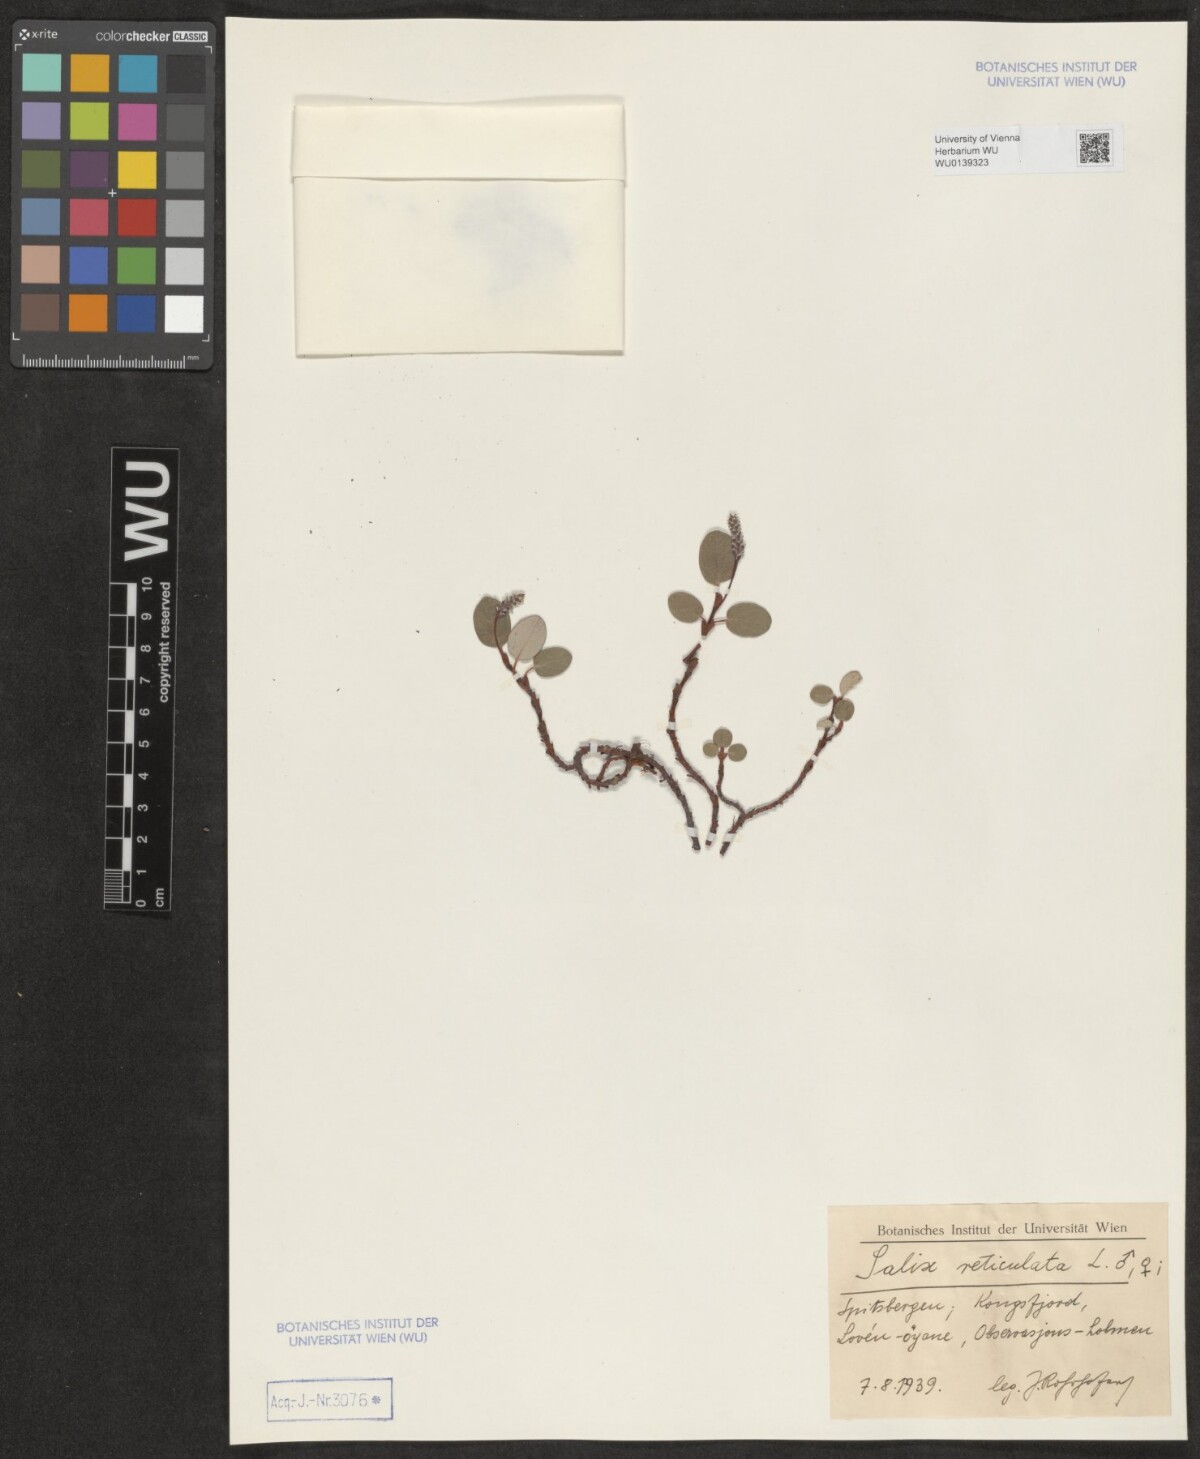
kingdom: Plantae
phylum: Tracheophyta
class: Magnoliopsida
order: Malpighiales
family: Salicaceae
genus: Salix
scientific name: Salix reticulata
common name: Net-leaved willow
